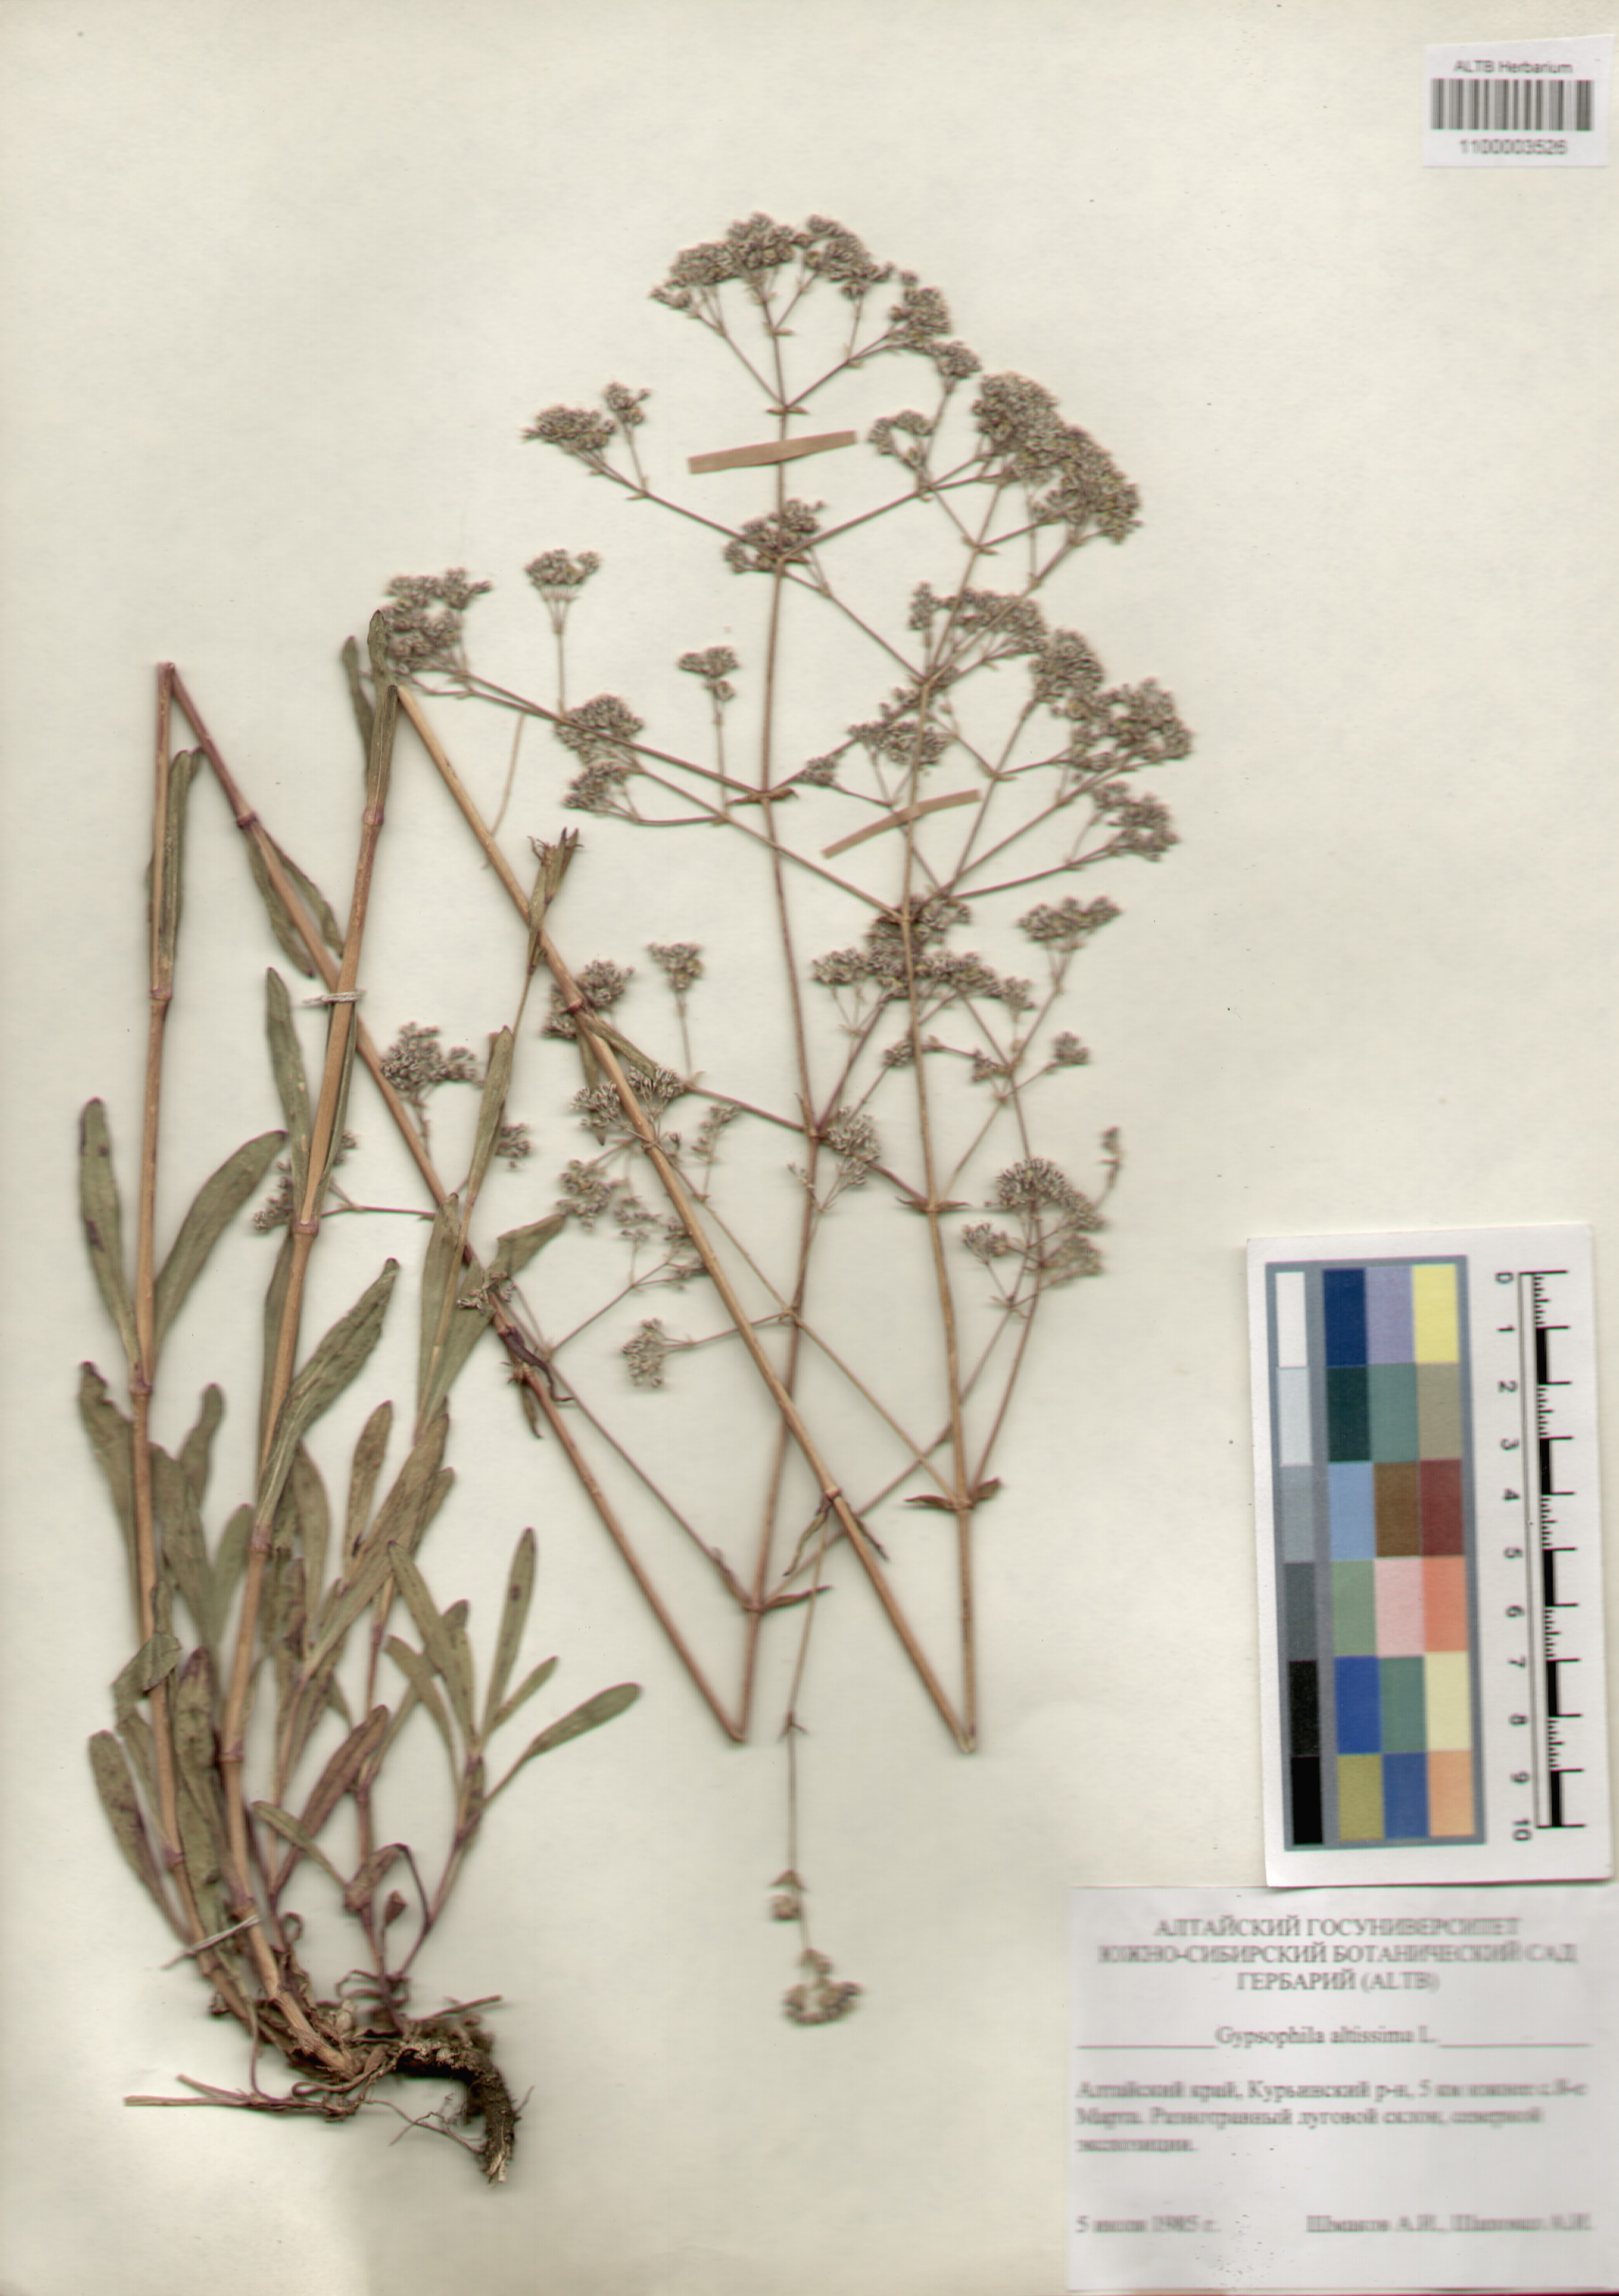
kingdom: Plantae
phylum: Tracheophyta
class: Magnoliopsida
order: Caryophyllales
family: Caryophyllaceae
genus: Gypsophila
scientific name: Gypsophila altissima
